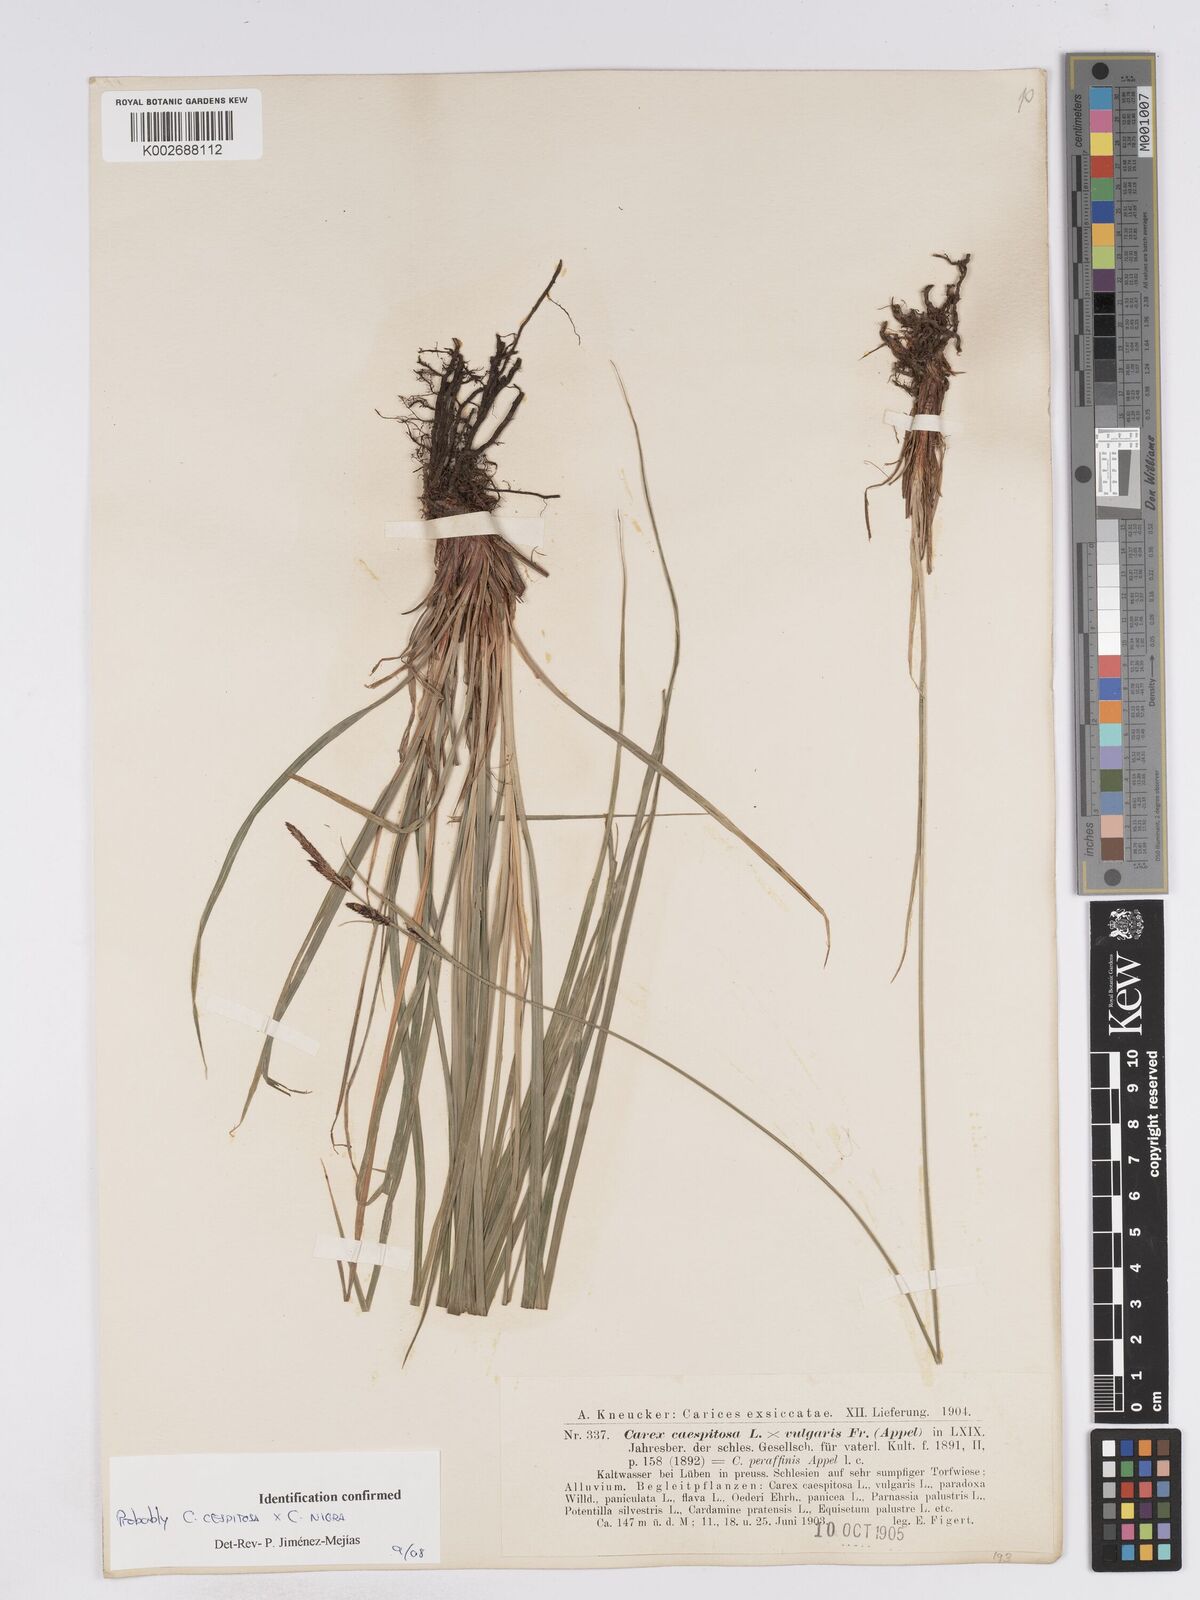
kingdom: Plantae
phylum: Tracheophyta
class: Liliopsida
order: Poales
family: Cyperaceae
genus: Carex
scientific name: Carex
